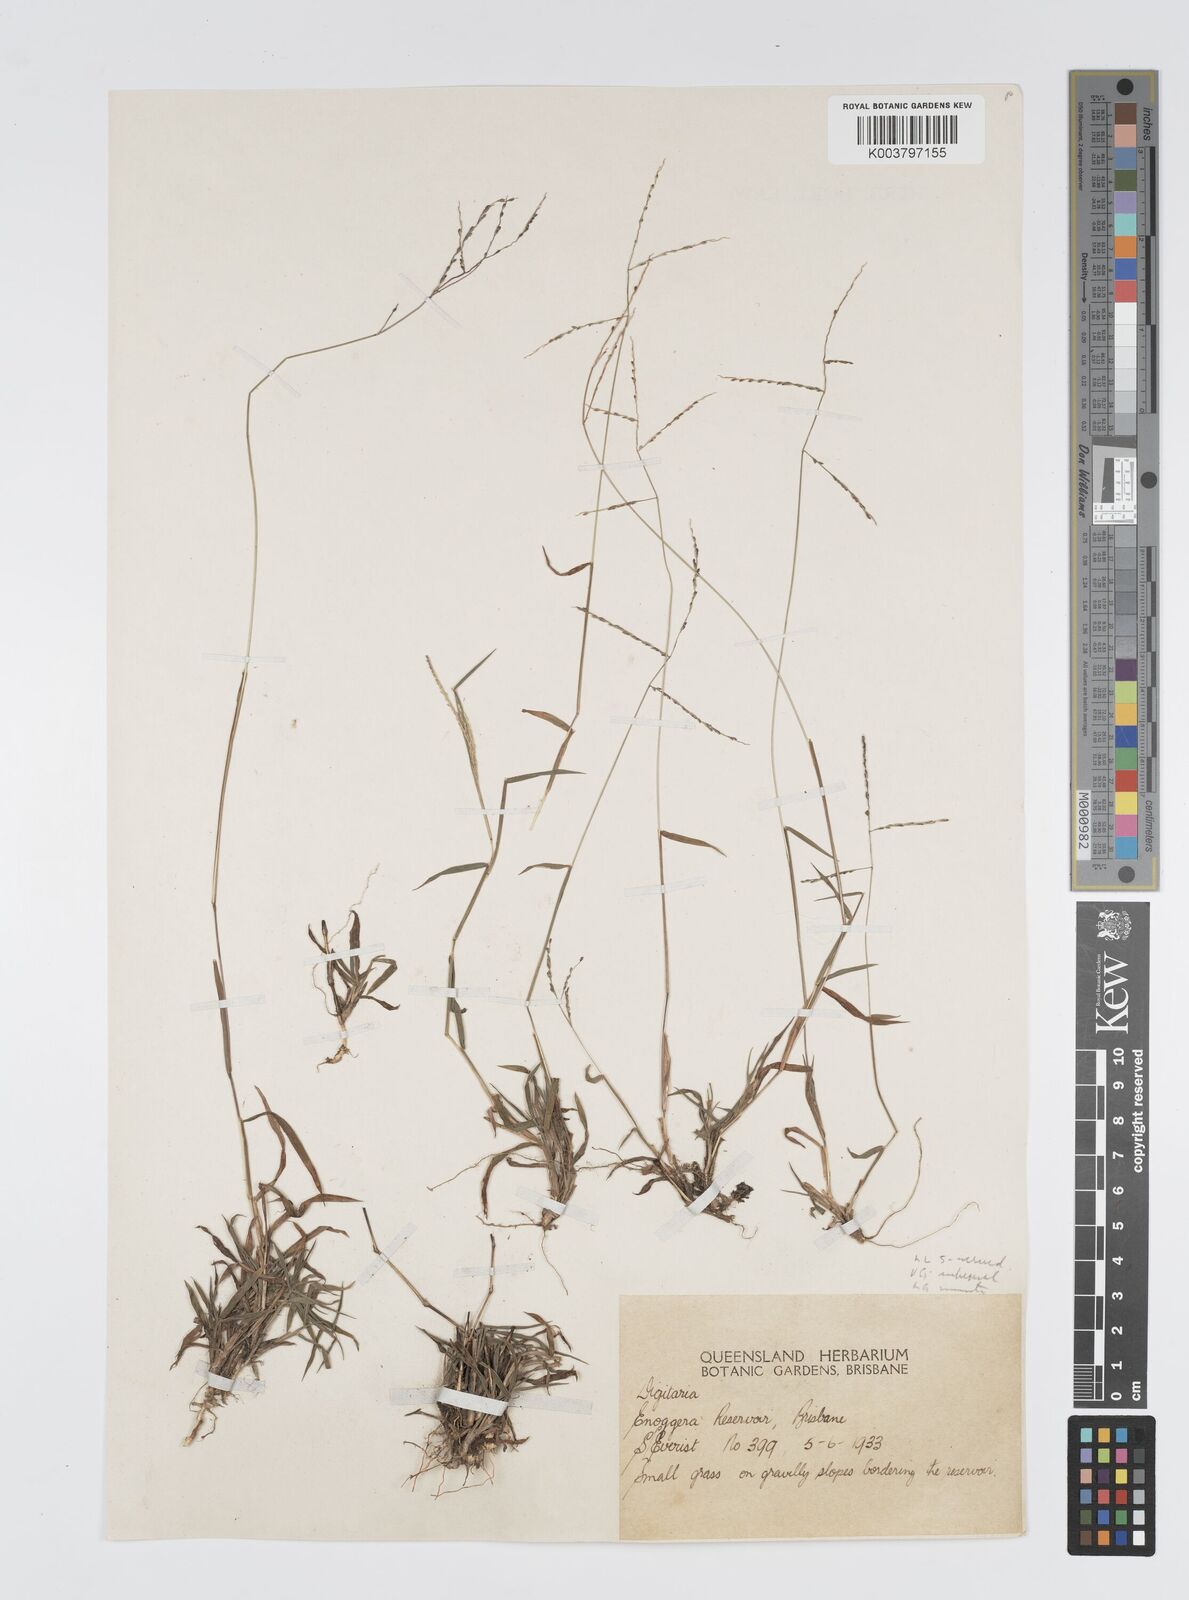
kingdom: Plantae
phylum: Tracheophyta
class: Liliopsida
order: Poales
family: Poaceae
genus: Digitaria
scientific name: Digitaria spec
